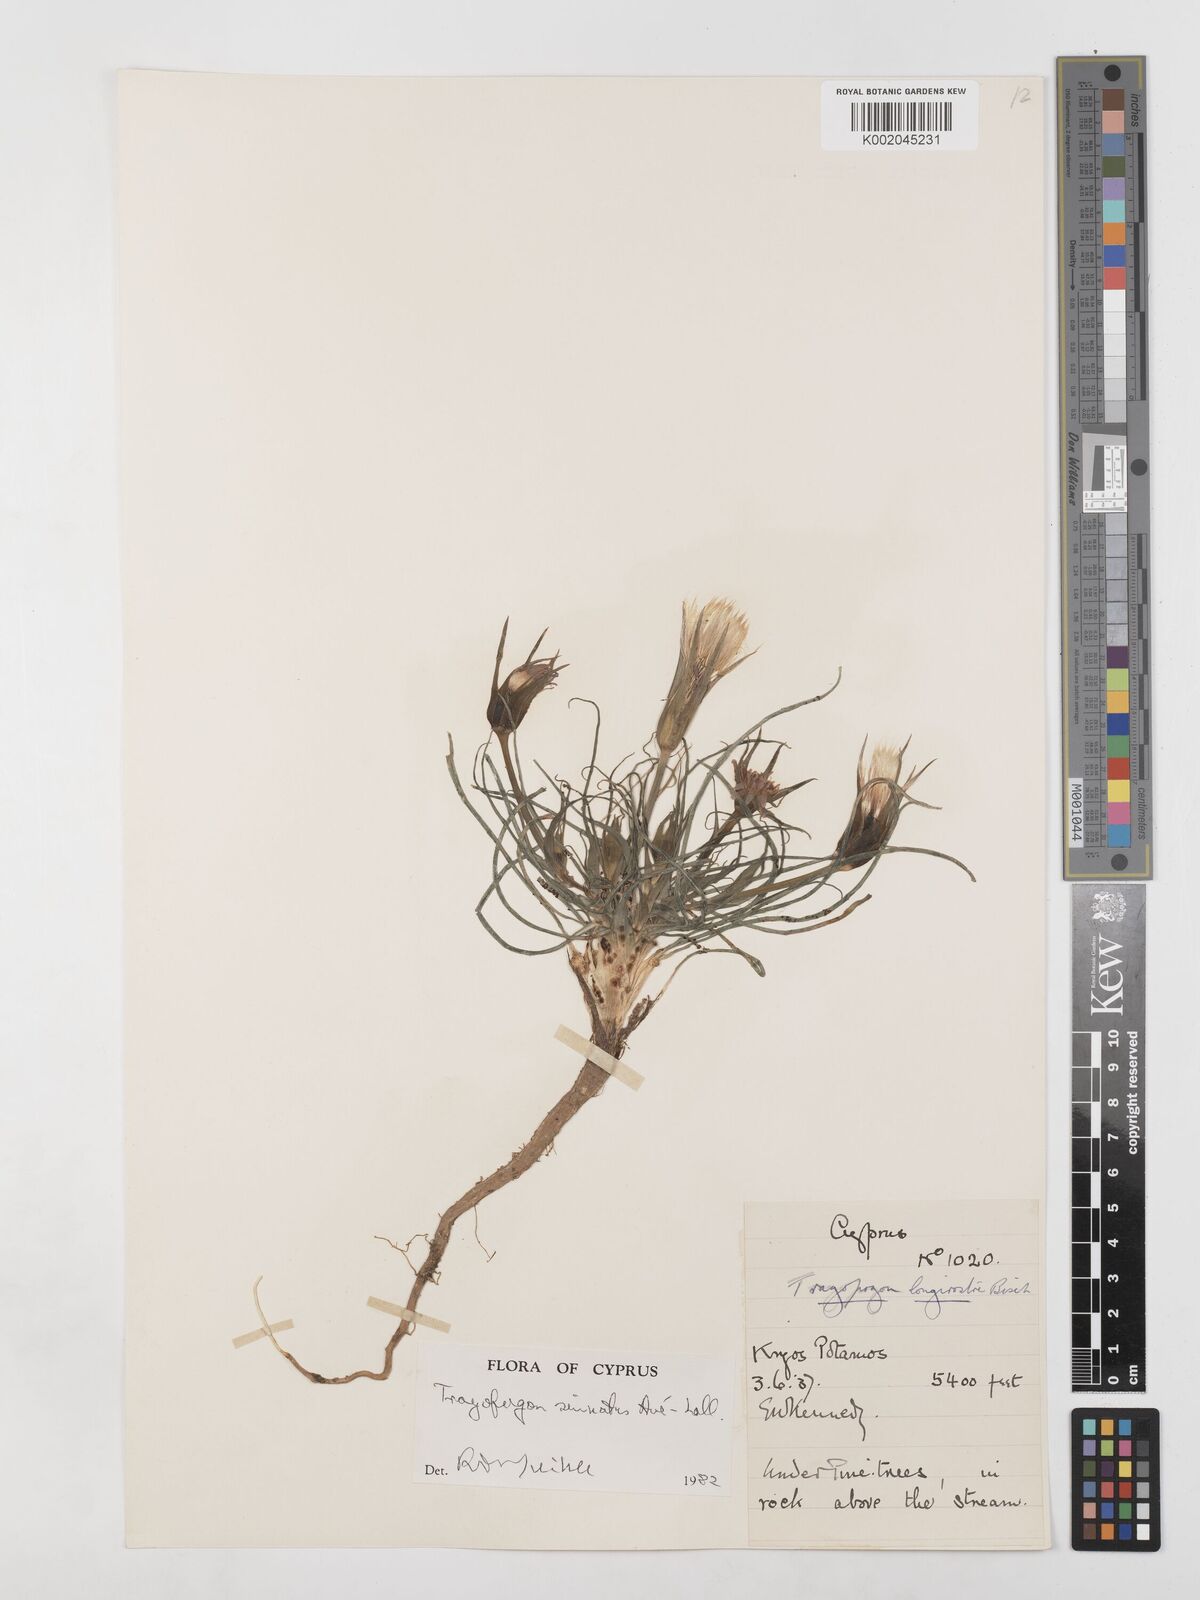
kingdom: Plantae
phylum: Tracheophyta
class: Magnoliopsida
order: Asterales
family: Asteraceae
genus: Tragopogon
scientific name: Tragopogon porrifolius
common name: Salsify
